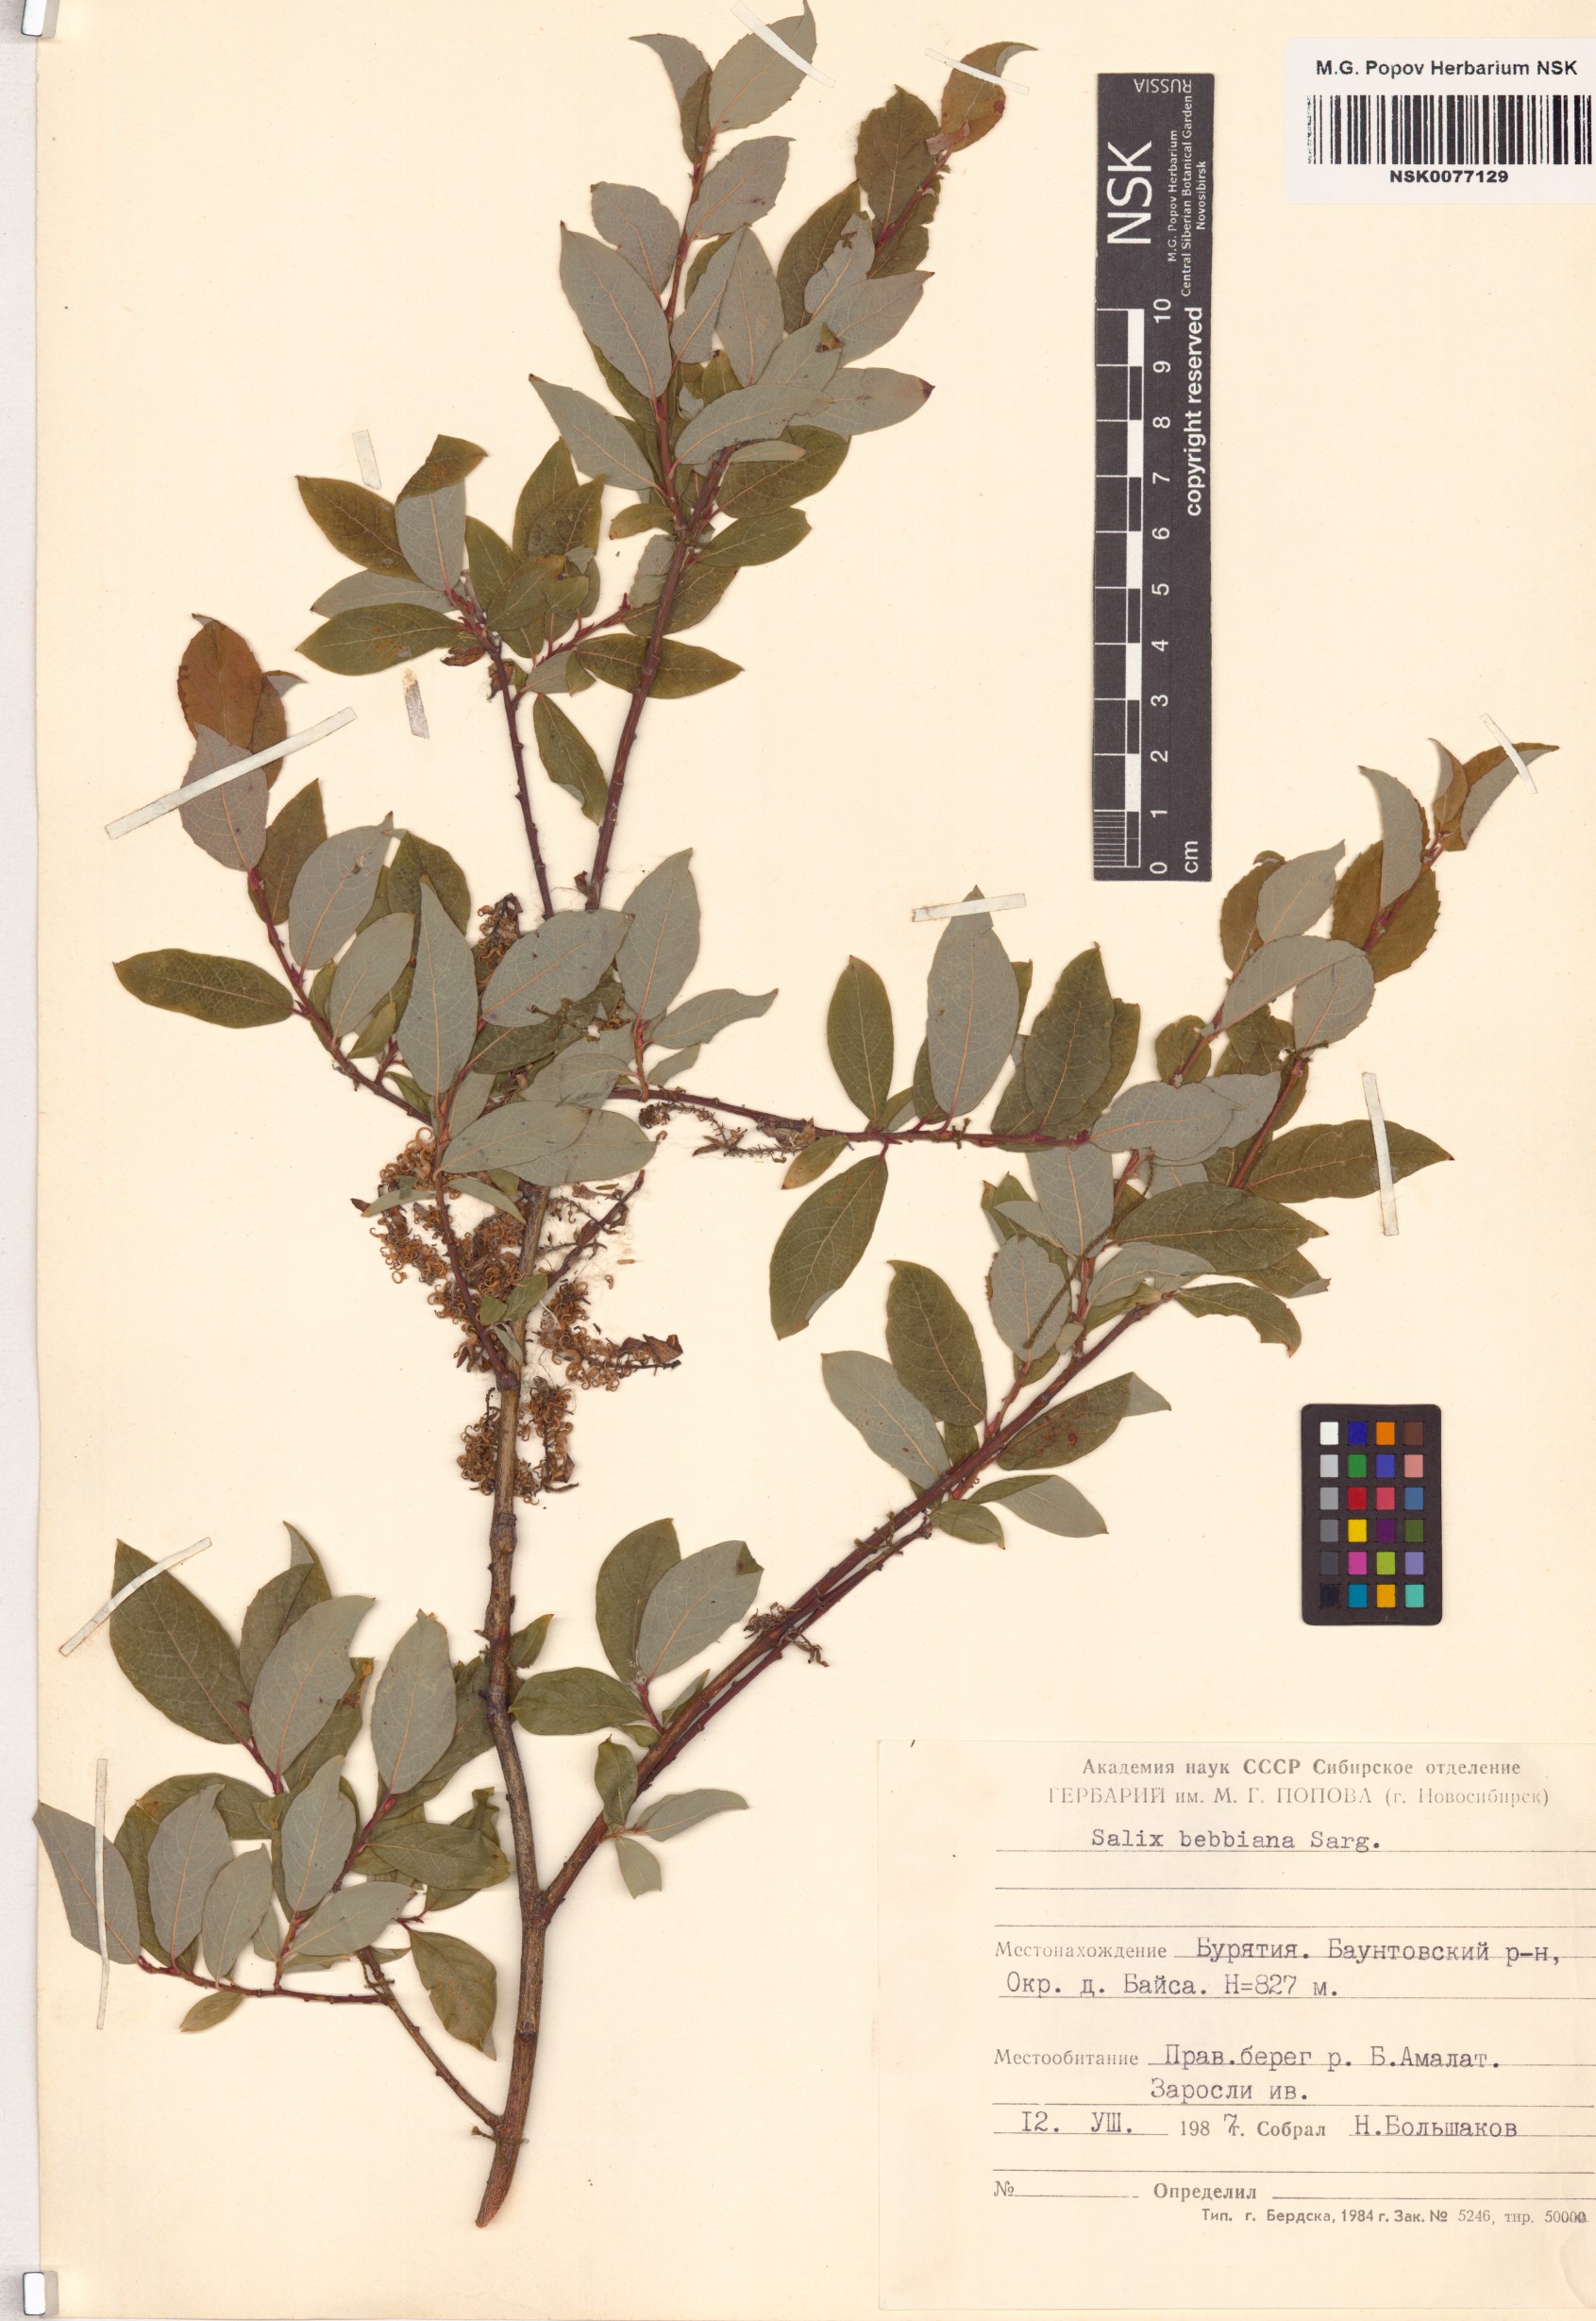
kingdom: Plantae
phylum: Tracheophyta
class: Magnoliopsida
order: Malpighiales
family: Salicaceae
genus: Salix
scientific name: Salix bebbiana
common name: Bebb's willow
